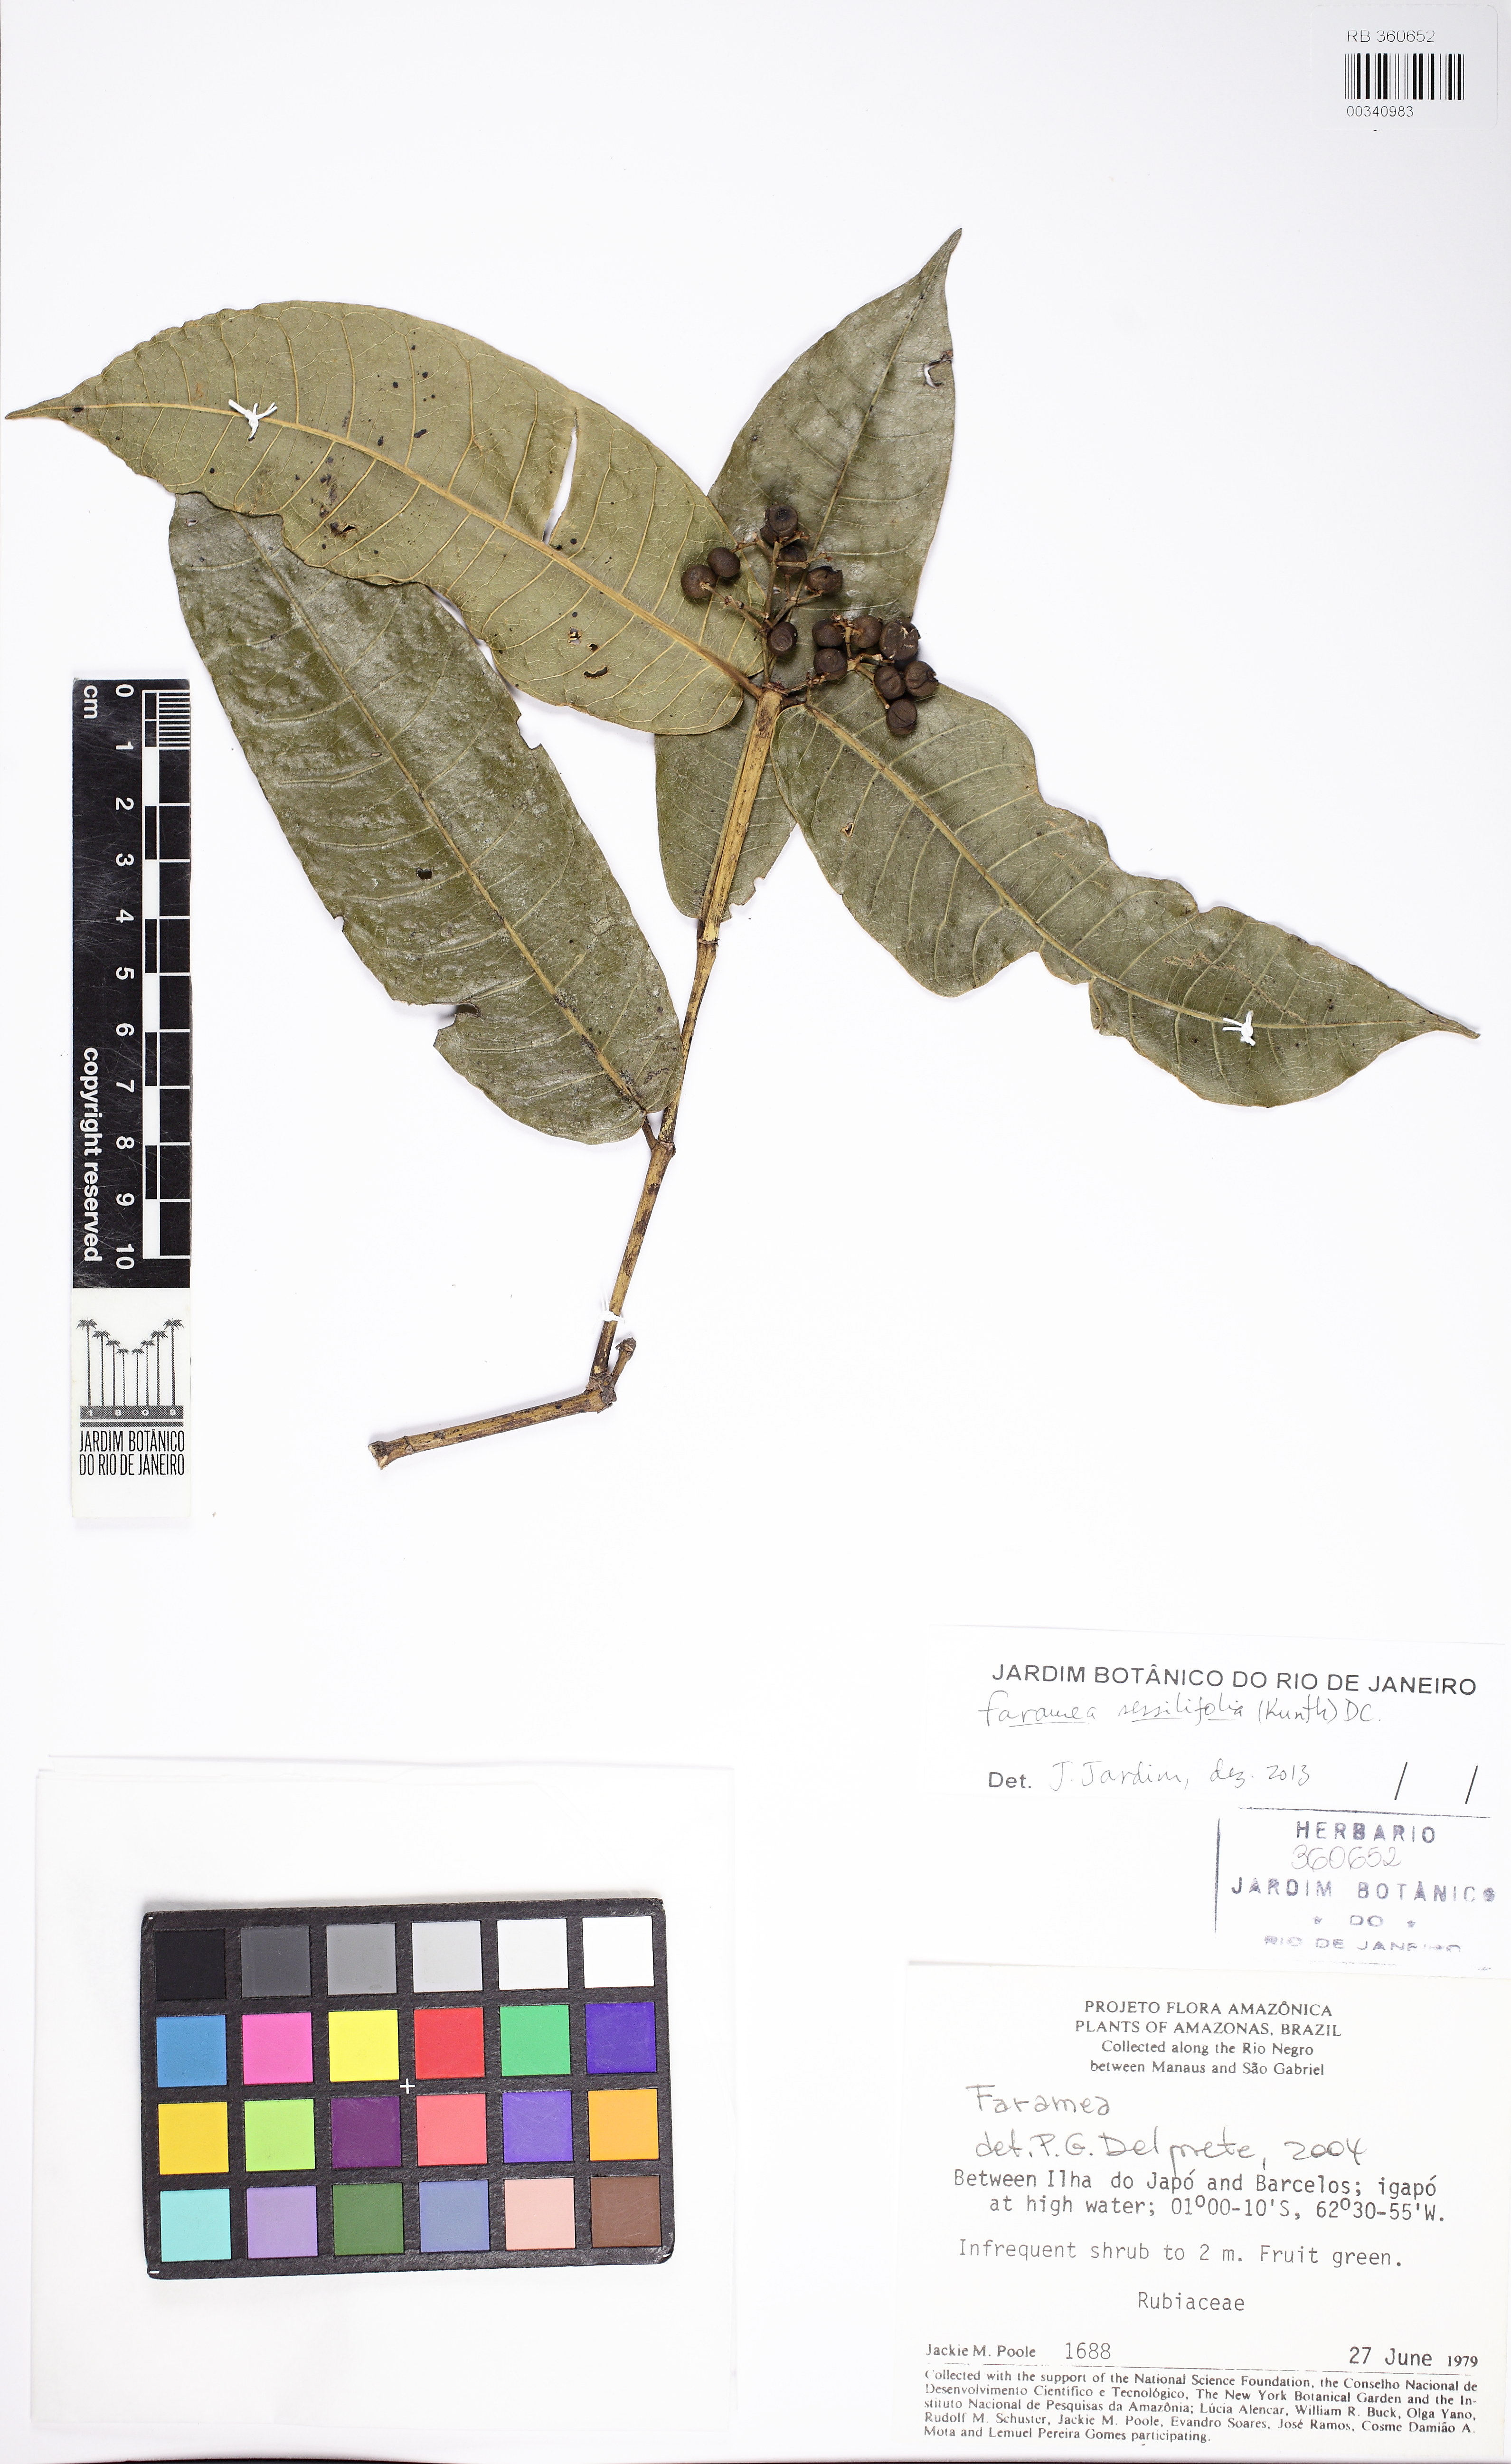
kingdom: Plantae
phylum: Tracheophyta
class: Magnoliopsida
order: Gentianales
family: Rubiaceae
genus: Faramea
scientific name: Faramea sessilifolia
